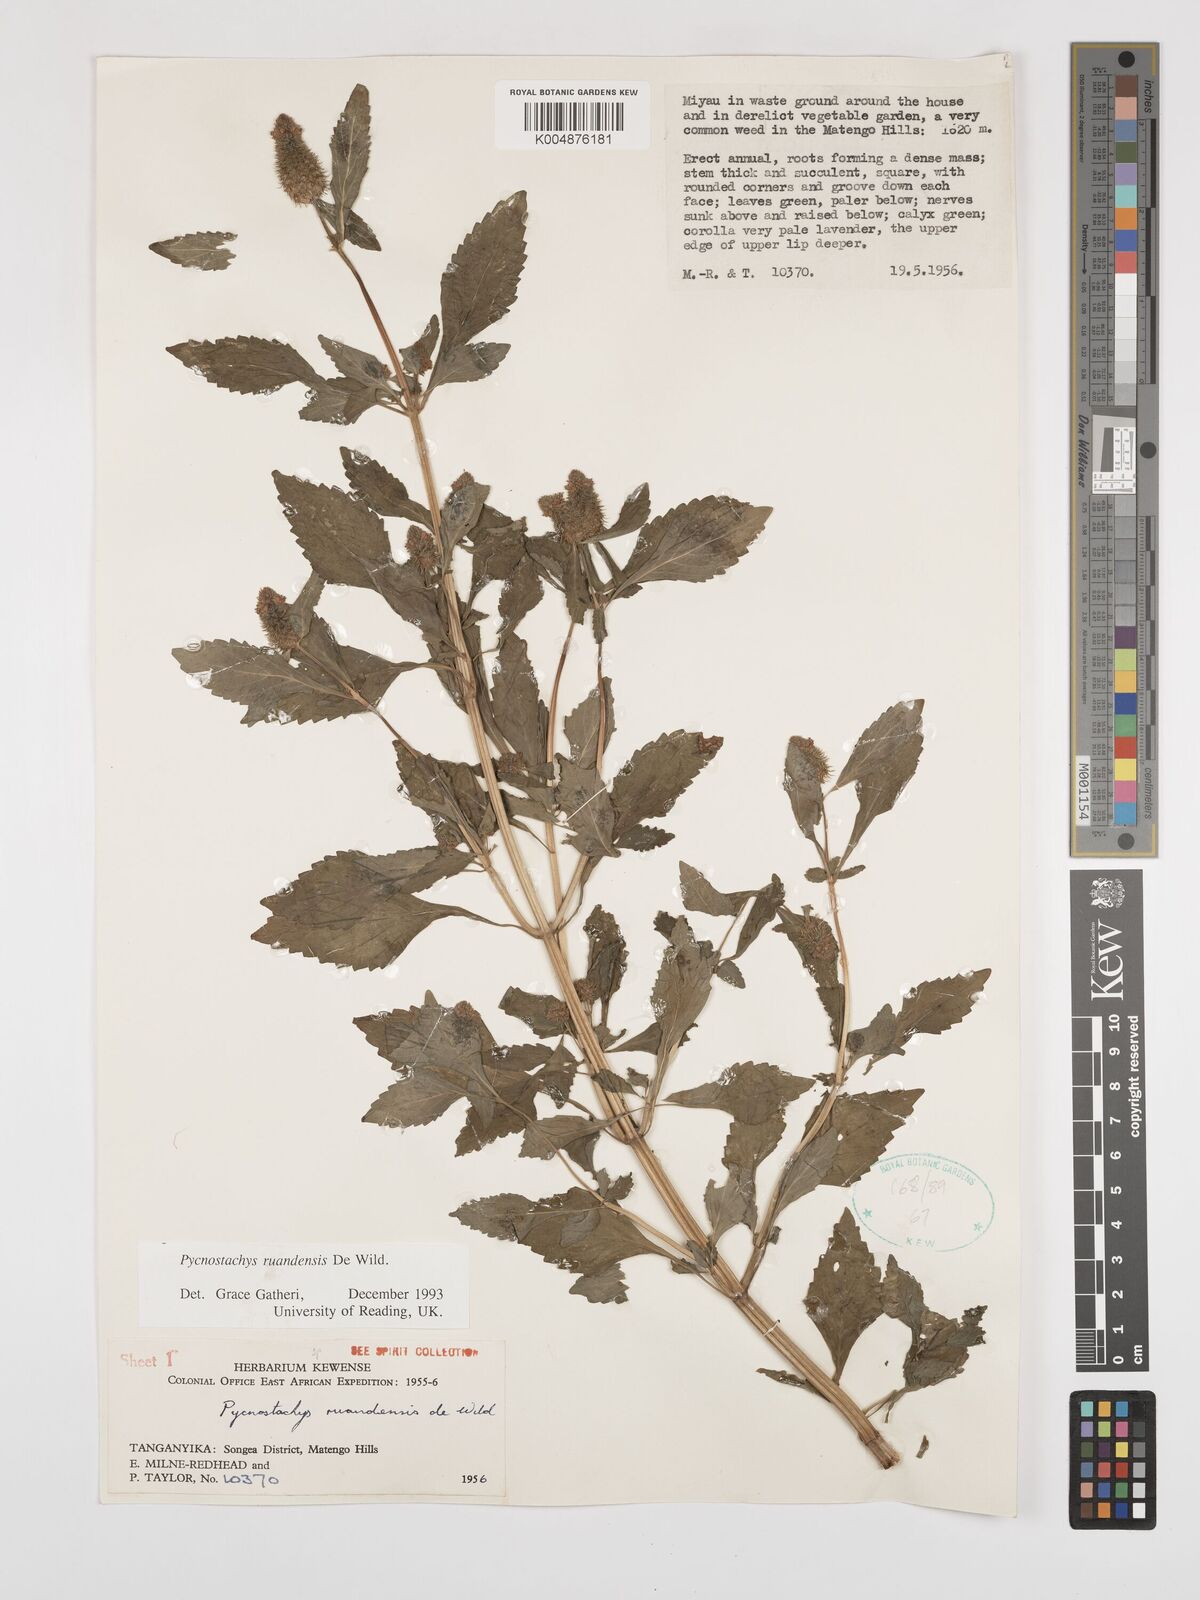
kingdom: Plantae
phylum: Tracheophyta
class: Magnoliopsida
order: Lamiales
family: Lamiaceae
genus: Coleus
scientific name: Coleus ruandensis
